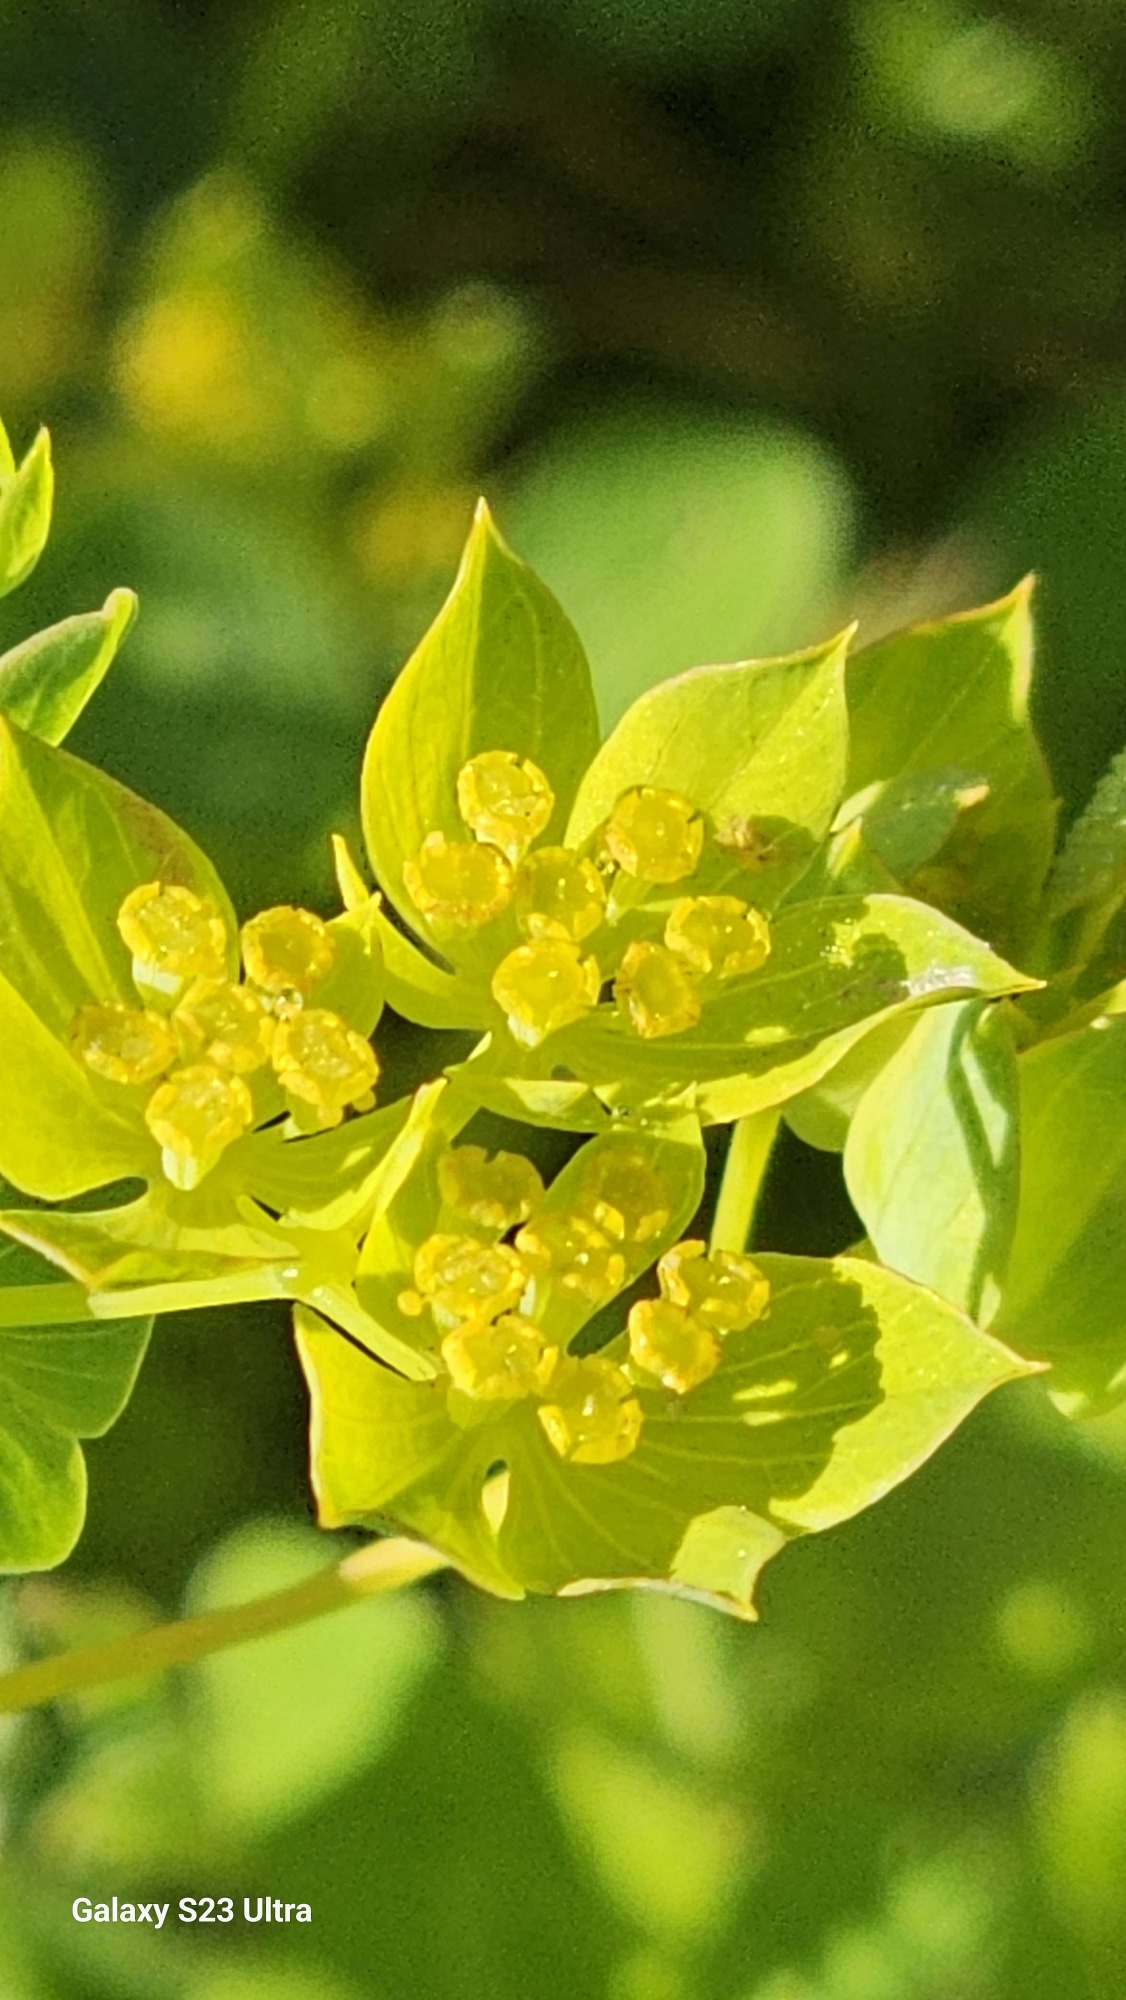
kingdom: Plantae
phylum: Tracheophyta
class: Magnoliopsida
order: Apiales
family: Apiaceae
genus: Bupleurum
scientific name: Bupleurum
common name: Hareøreslægten
